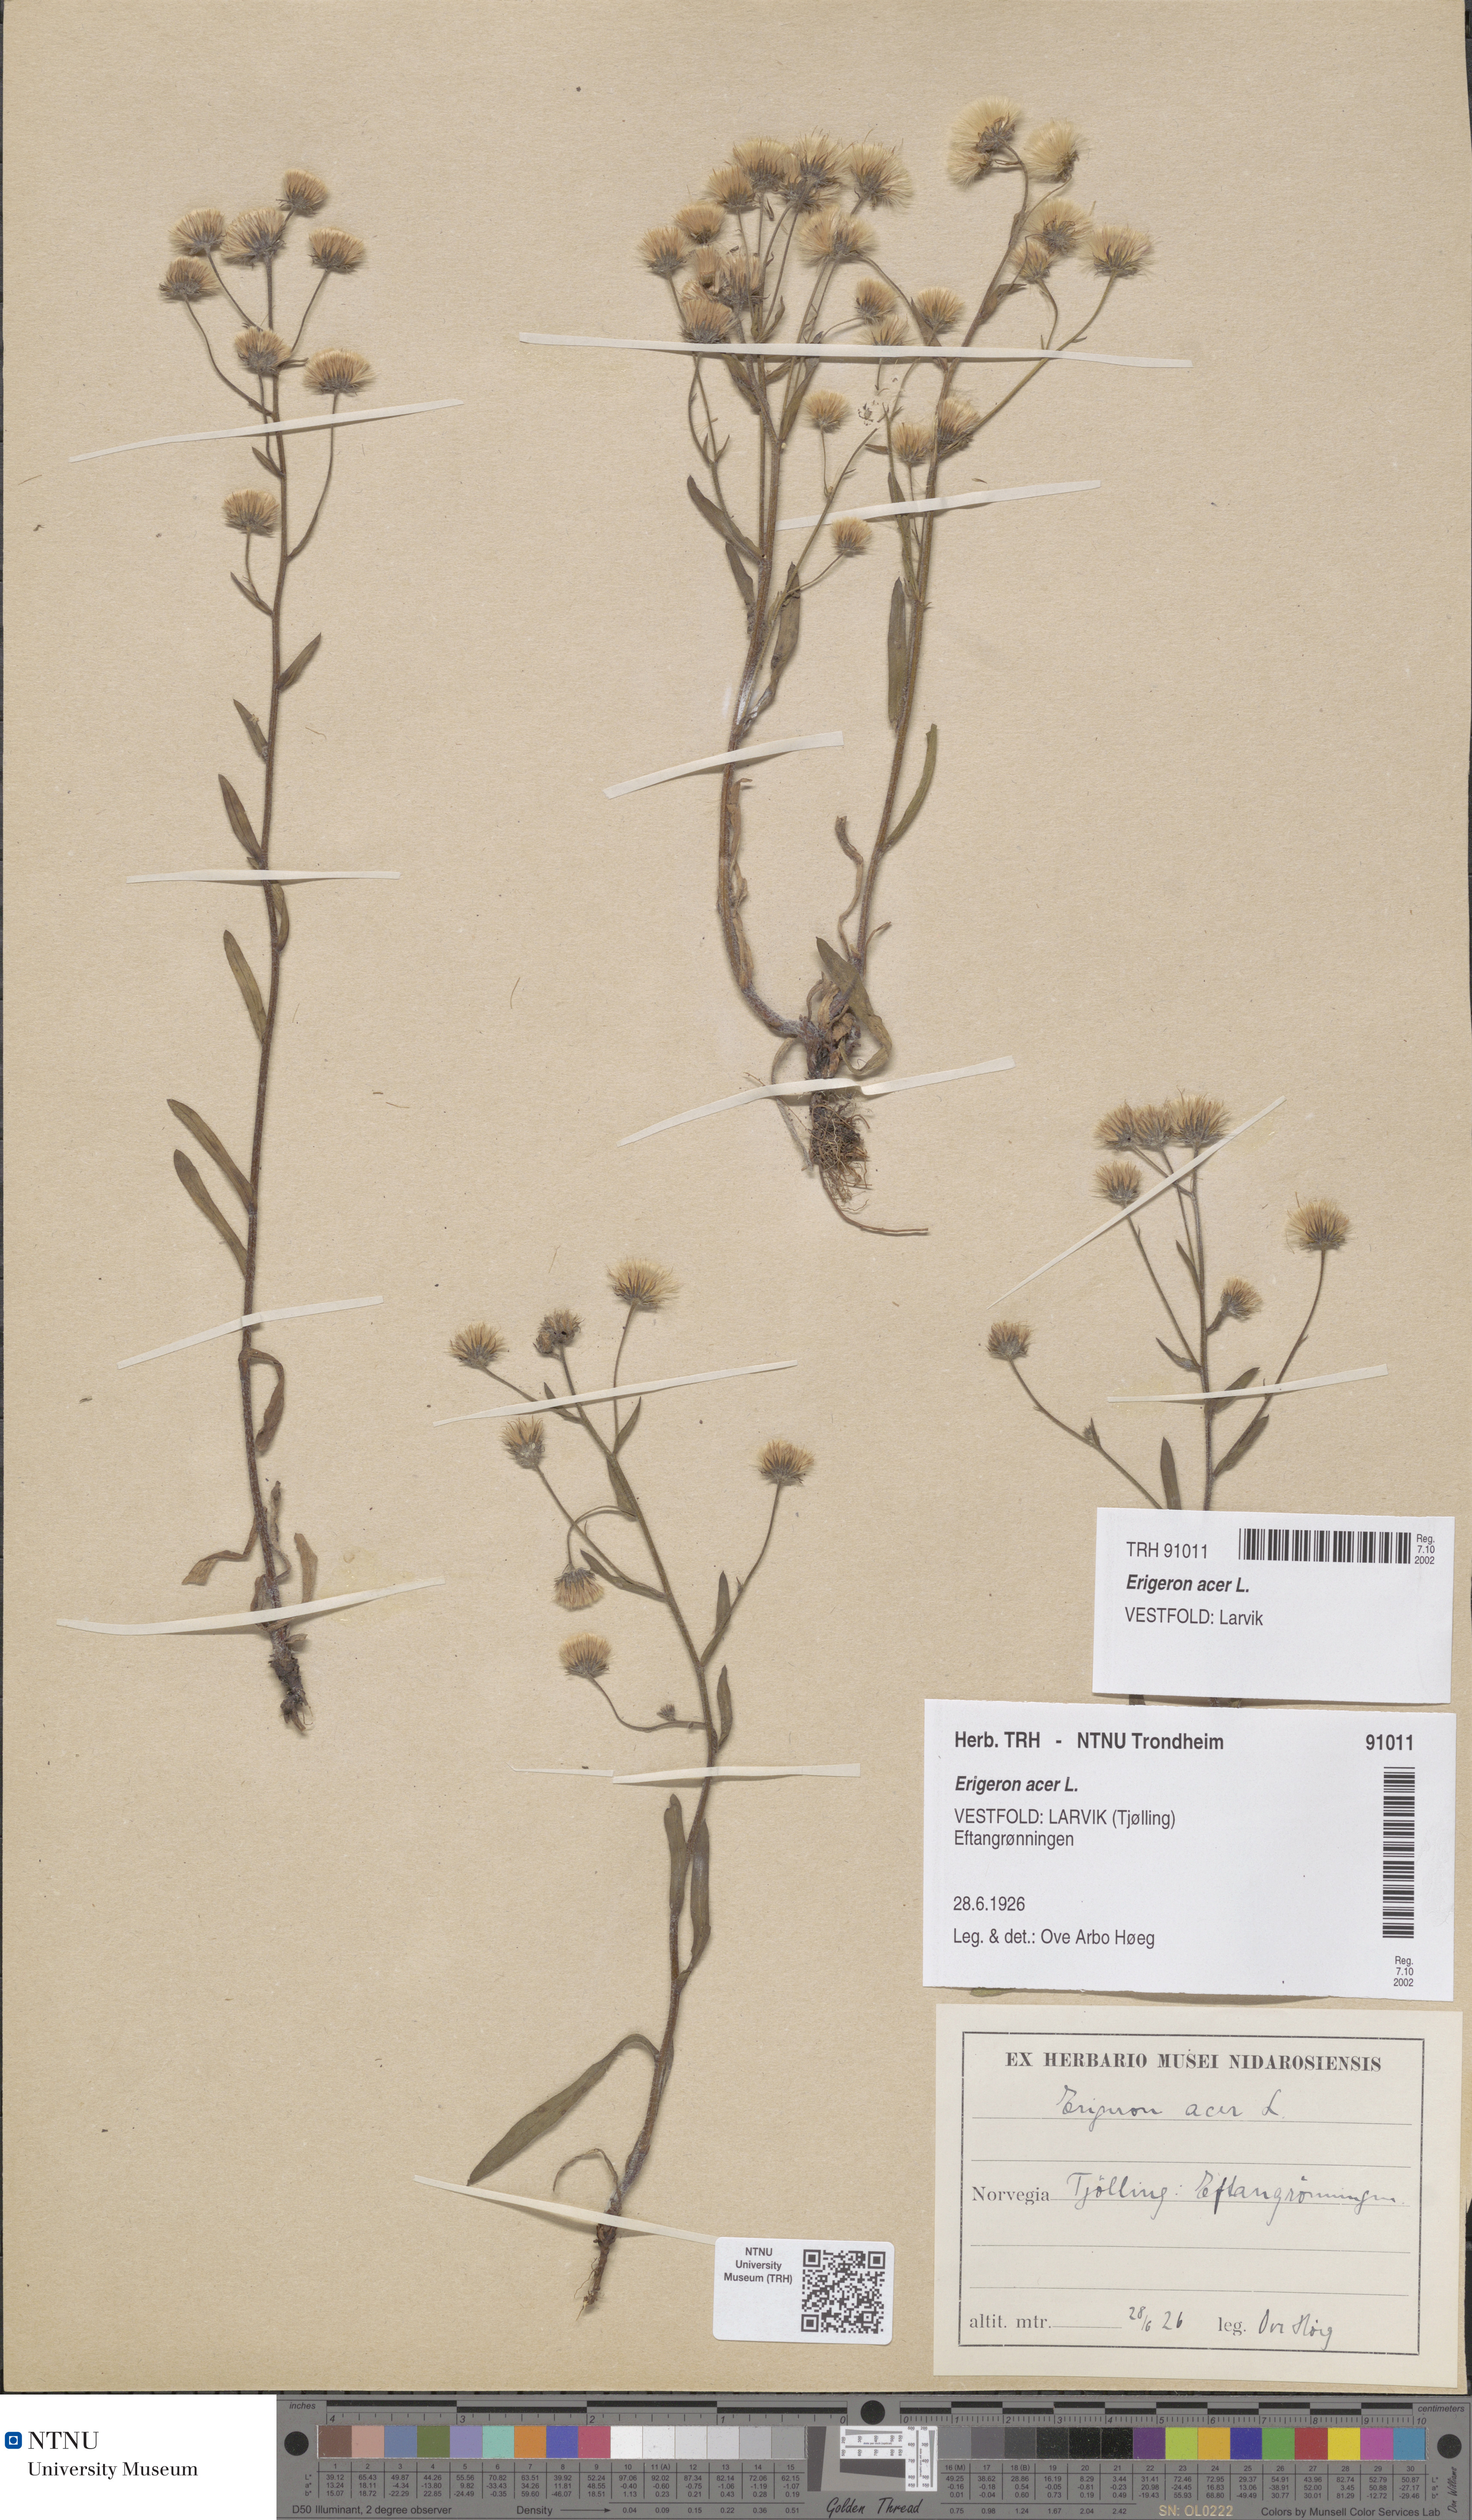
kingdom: Plantae
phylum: Tracheophyta
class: Magnoliopsida
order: Asterales
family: Asteraceae
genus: Erigeron
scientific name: Erigeron acris
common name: Blue fleabane
